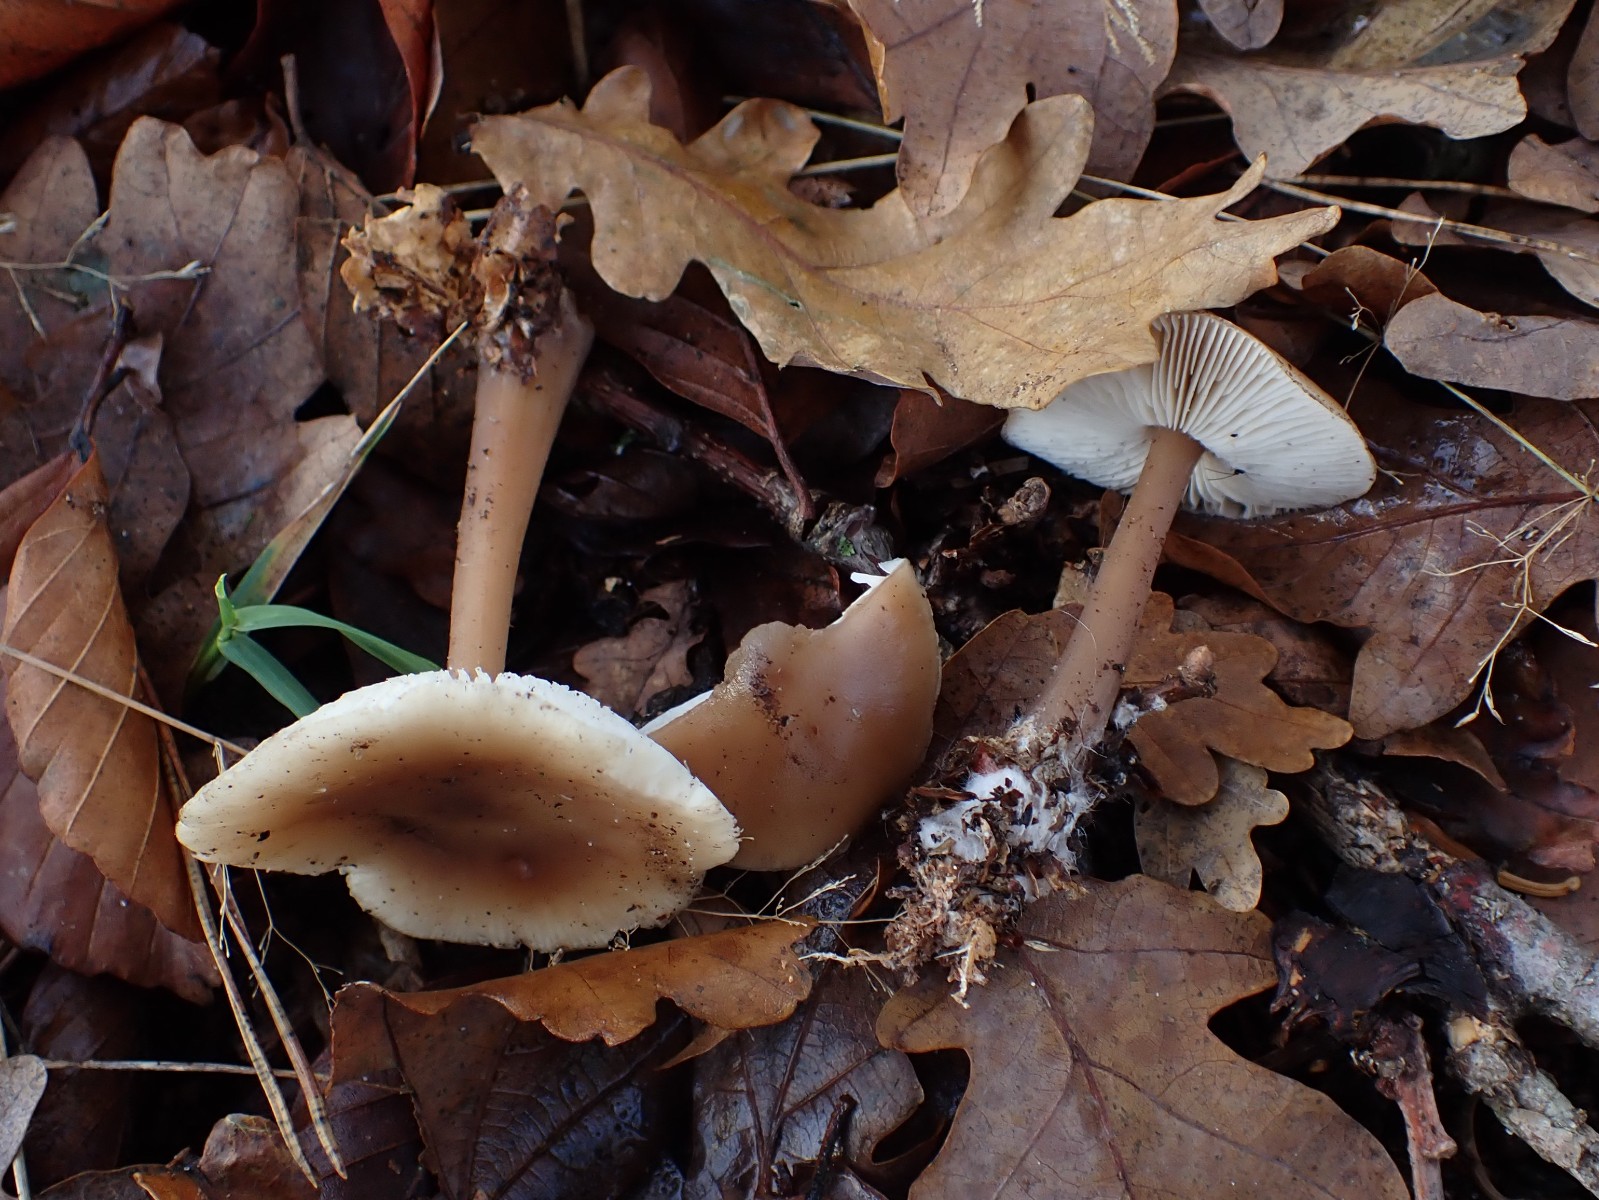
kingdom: Fungi
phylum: Basidiomycota
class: Agaricomycetes
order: Agaricales
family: Omphalotaceae
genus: Rhodocollybia
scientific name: Rhodocollybia asema
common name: horngrå fladhat
